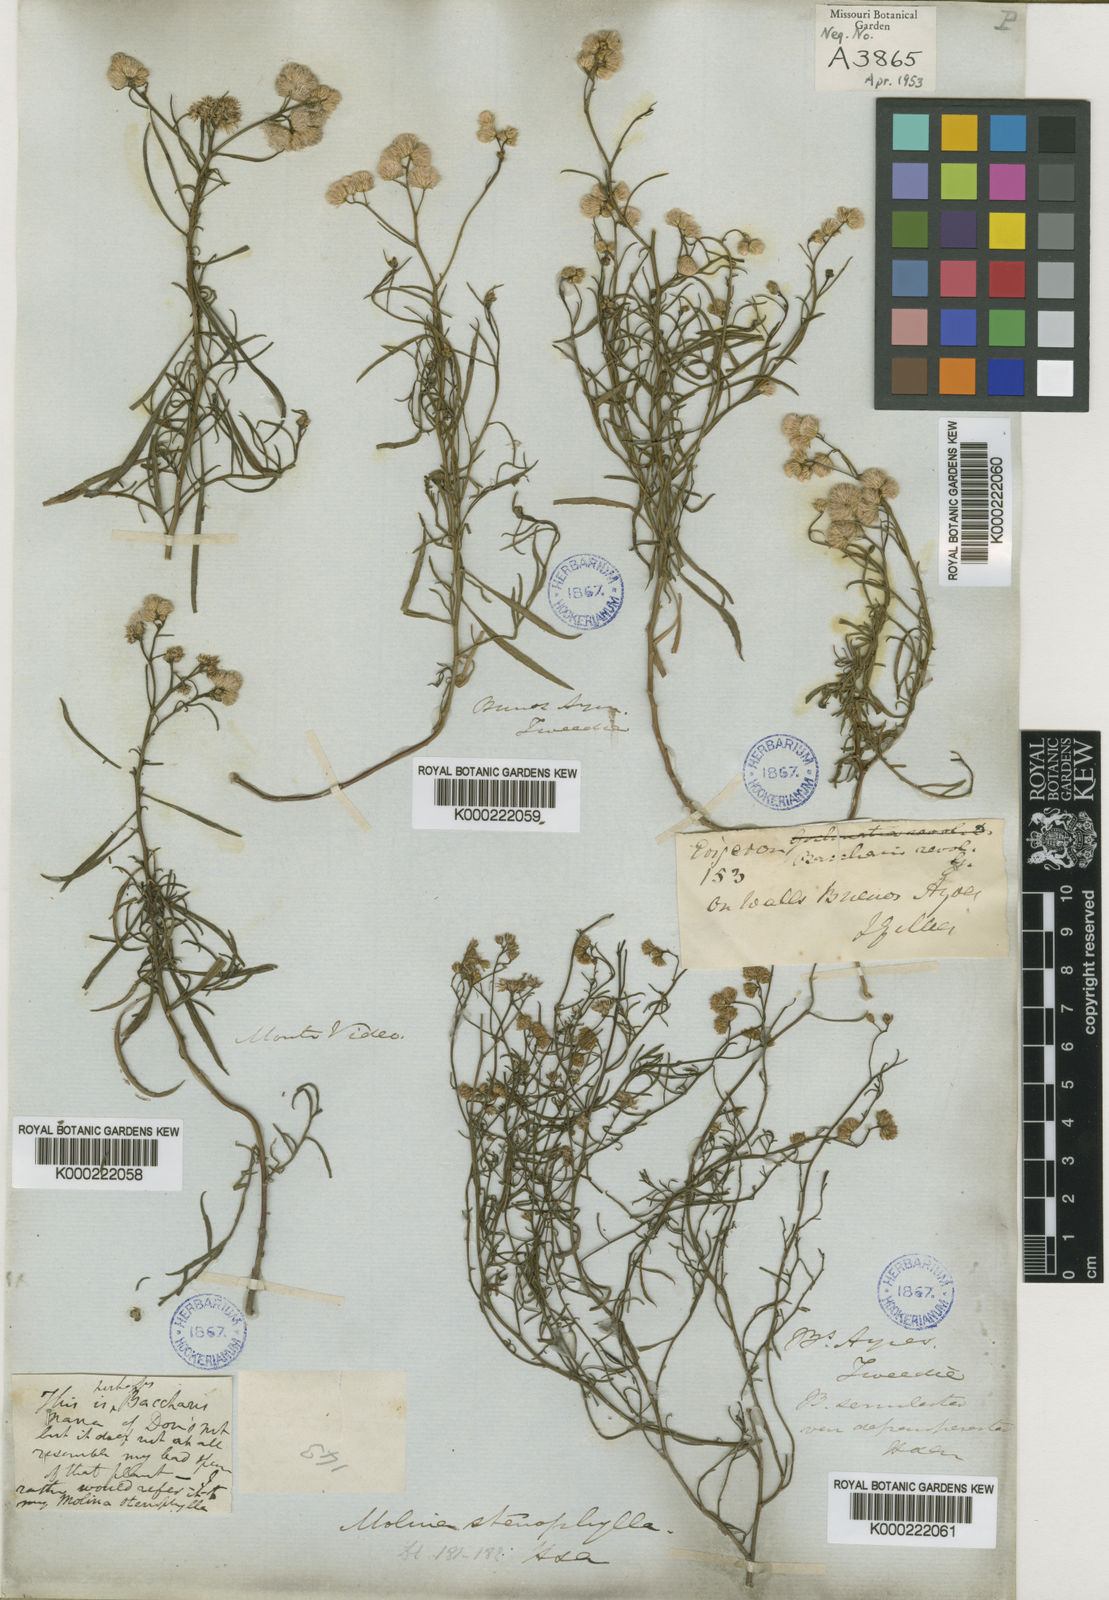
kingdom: Plantae
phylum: Tracheophyta
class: Magnoliopsida
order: Asterales
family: Asteraceae
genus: Baccharis
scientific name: Baccharis glutinosa
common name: Saltmarsh baccharis
